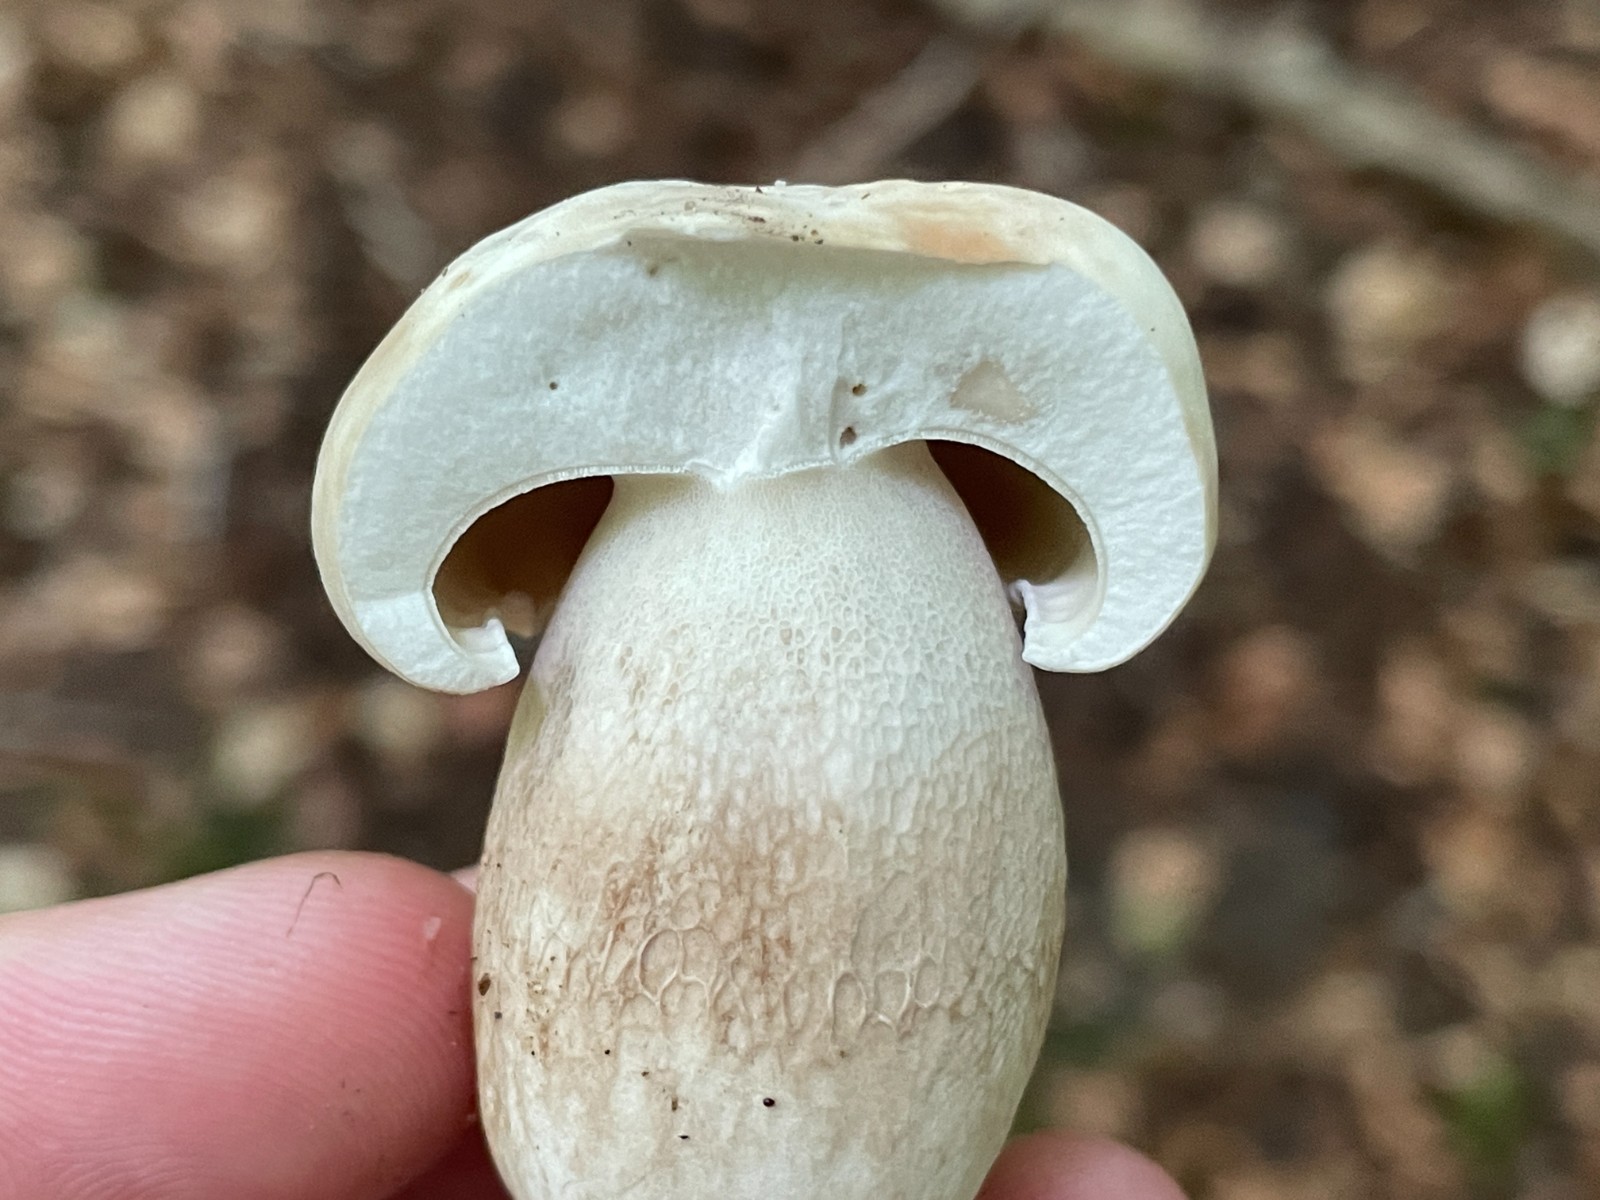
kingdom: Fungi
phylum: Basidiomycota
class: Agaricomycetes
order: Boletales
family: Boletaceae
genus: Boletus
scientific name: Boletus edulis
